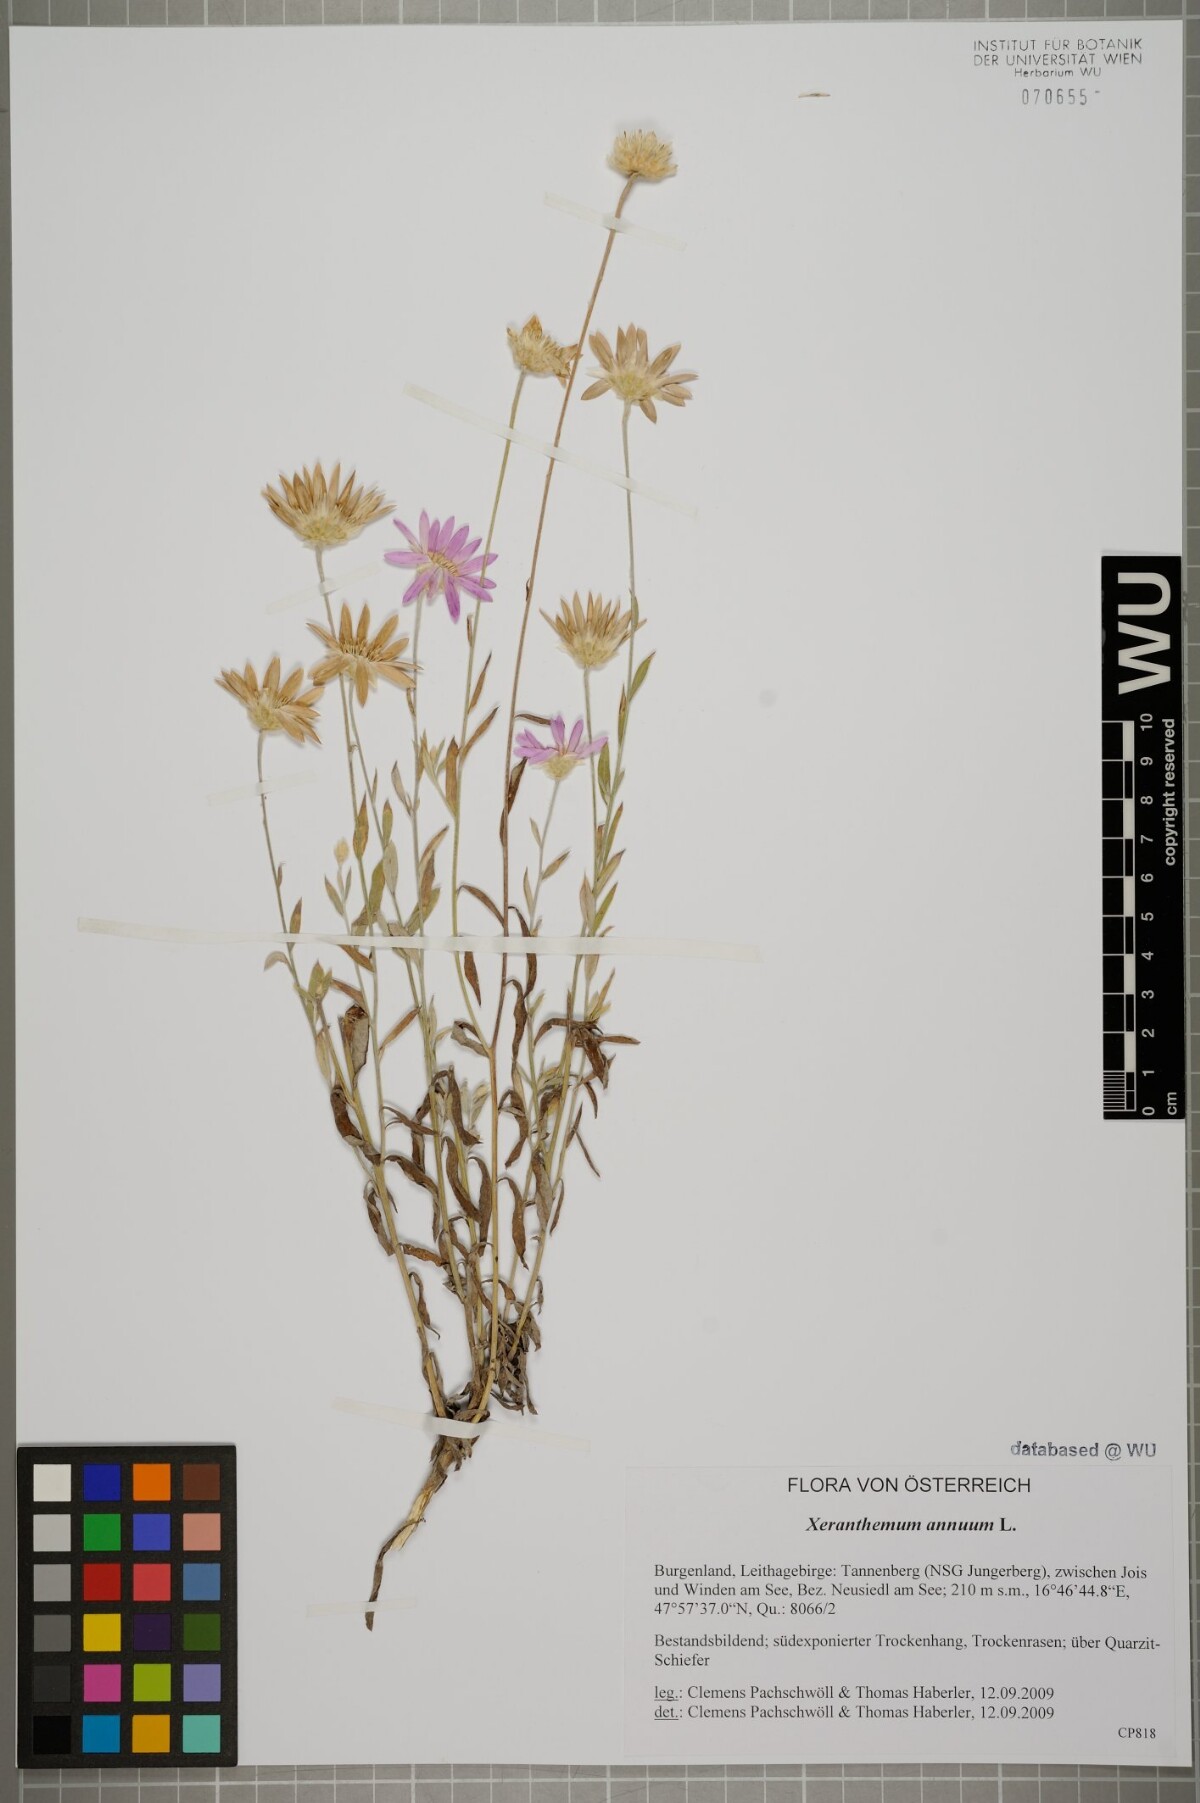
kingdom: Plantae
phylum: Tracheophyta
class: Magnoliopsida
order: Asterales
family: Asteraceae
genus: Xeranthemum
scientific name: Xeranthemum annuum
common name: Immortelle
